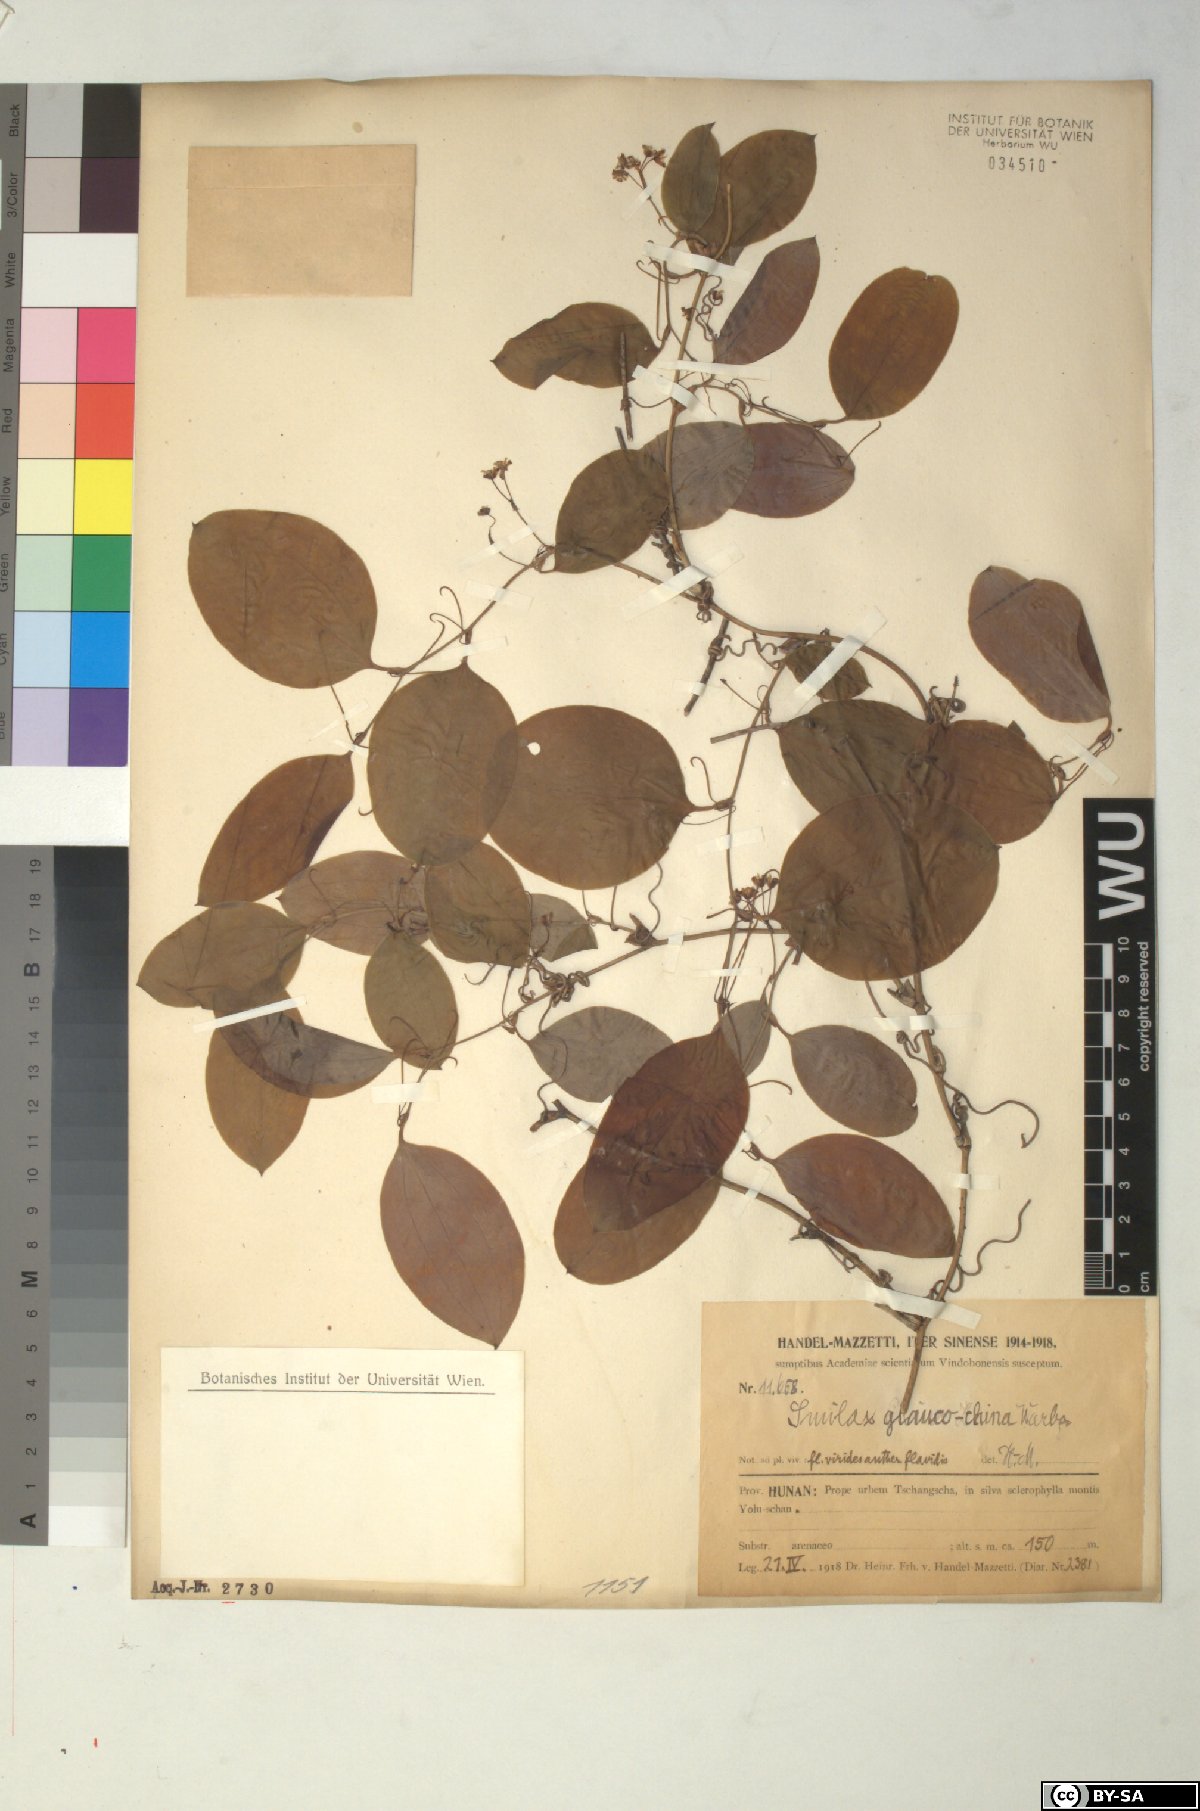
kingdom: Plantae
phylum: Tracheophyta
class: Liliopsida
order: Liliales
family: Smilacaceae
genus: Smilax
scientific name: Smilax glaucochina
